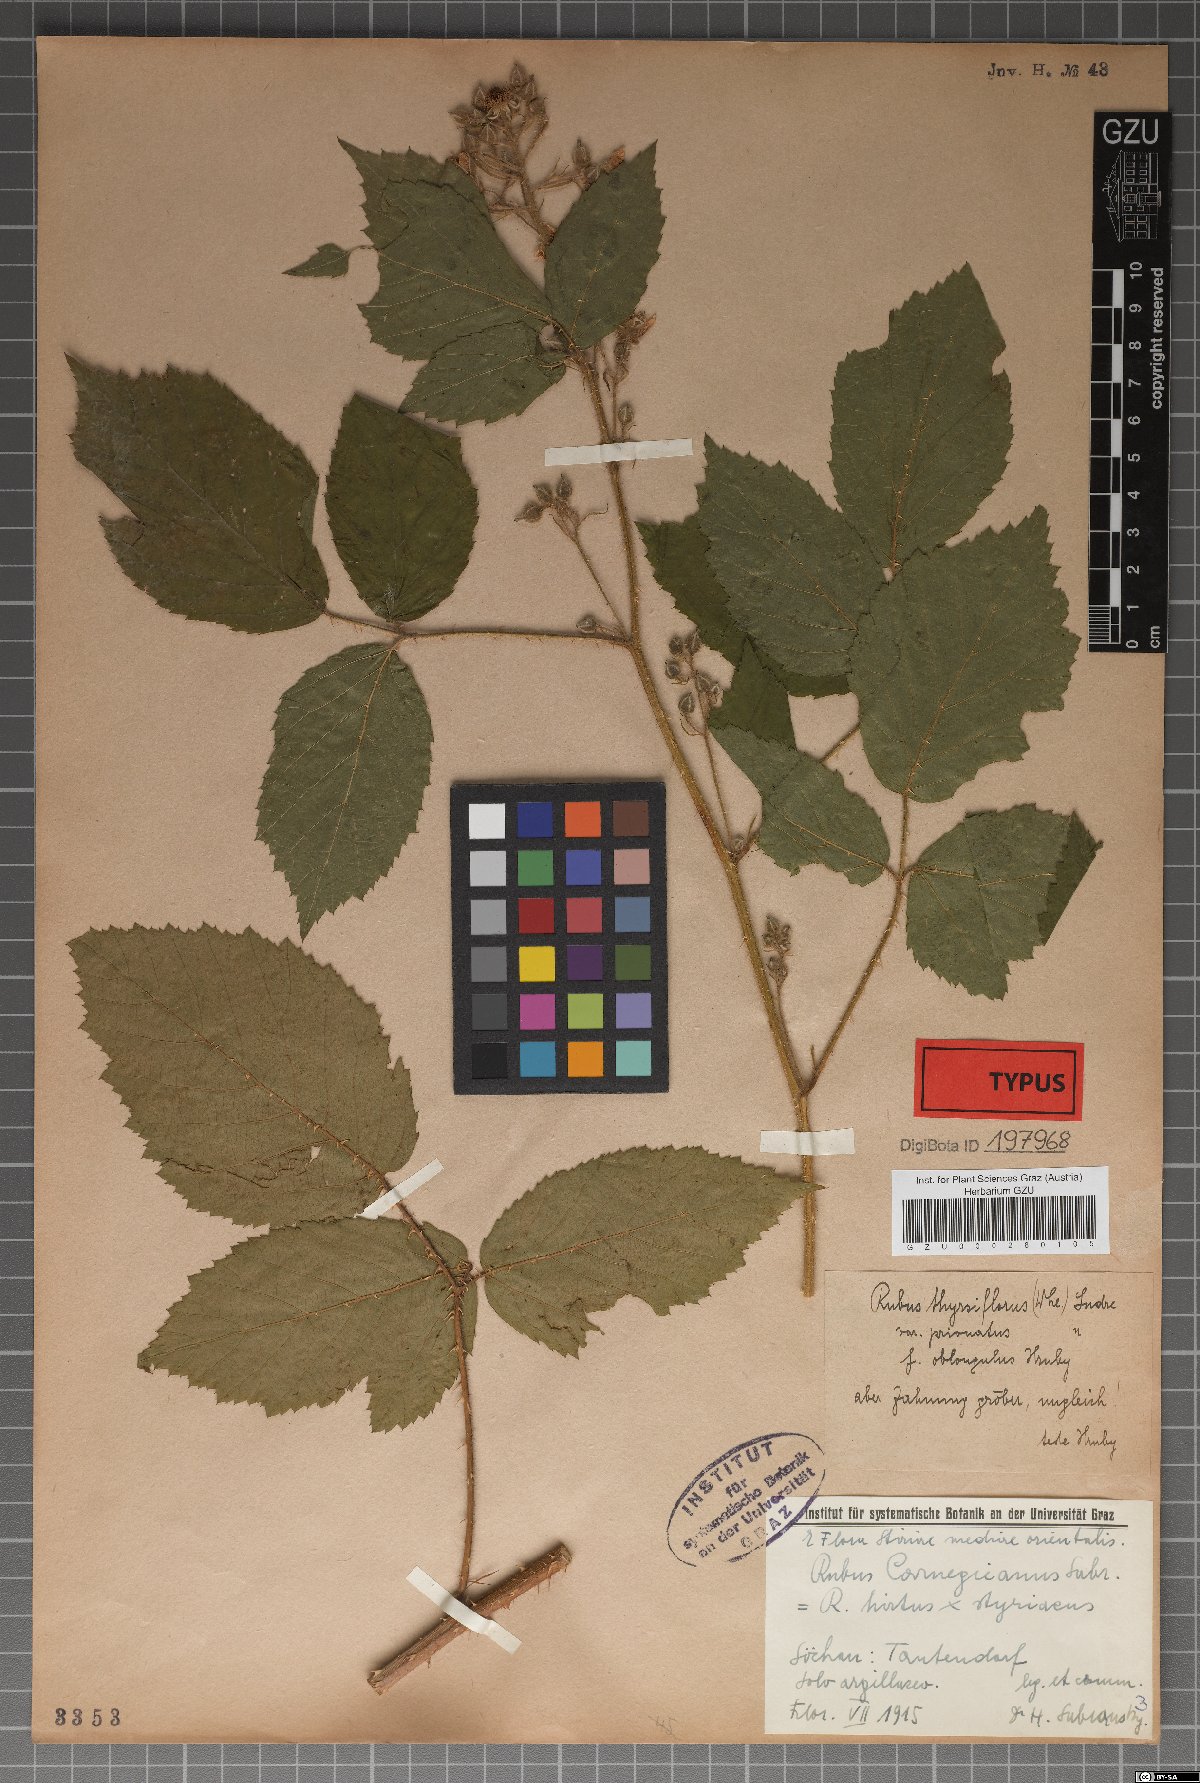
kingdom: Plantae
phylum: Tracheophyta
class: Magnoliopsida
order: Rosales
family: Rosaceae
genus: Rubus
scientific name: Rubus castoreus
